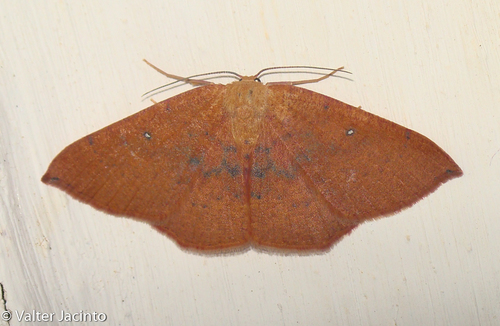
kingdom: Animalia
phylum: Arthropoda
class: Insecta
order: Lepidoptera
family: Geometridae
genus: Cyclophora
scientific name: Cyclophora puppillaria
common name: Blair's mocha
